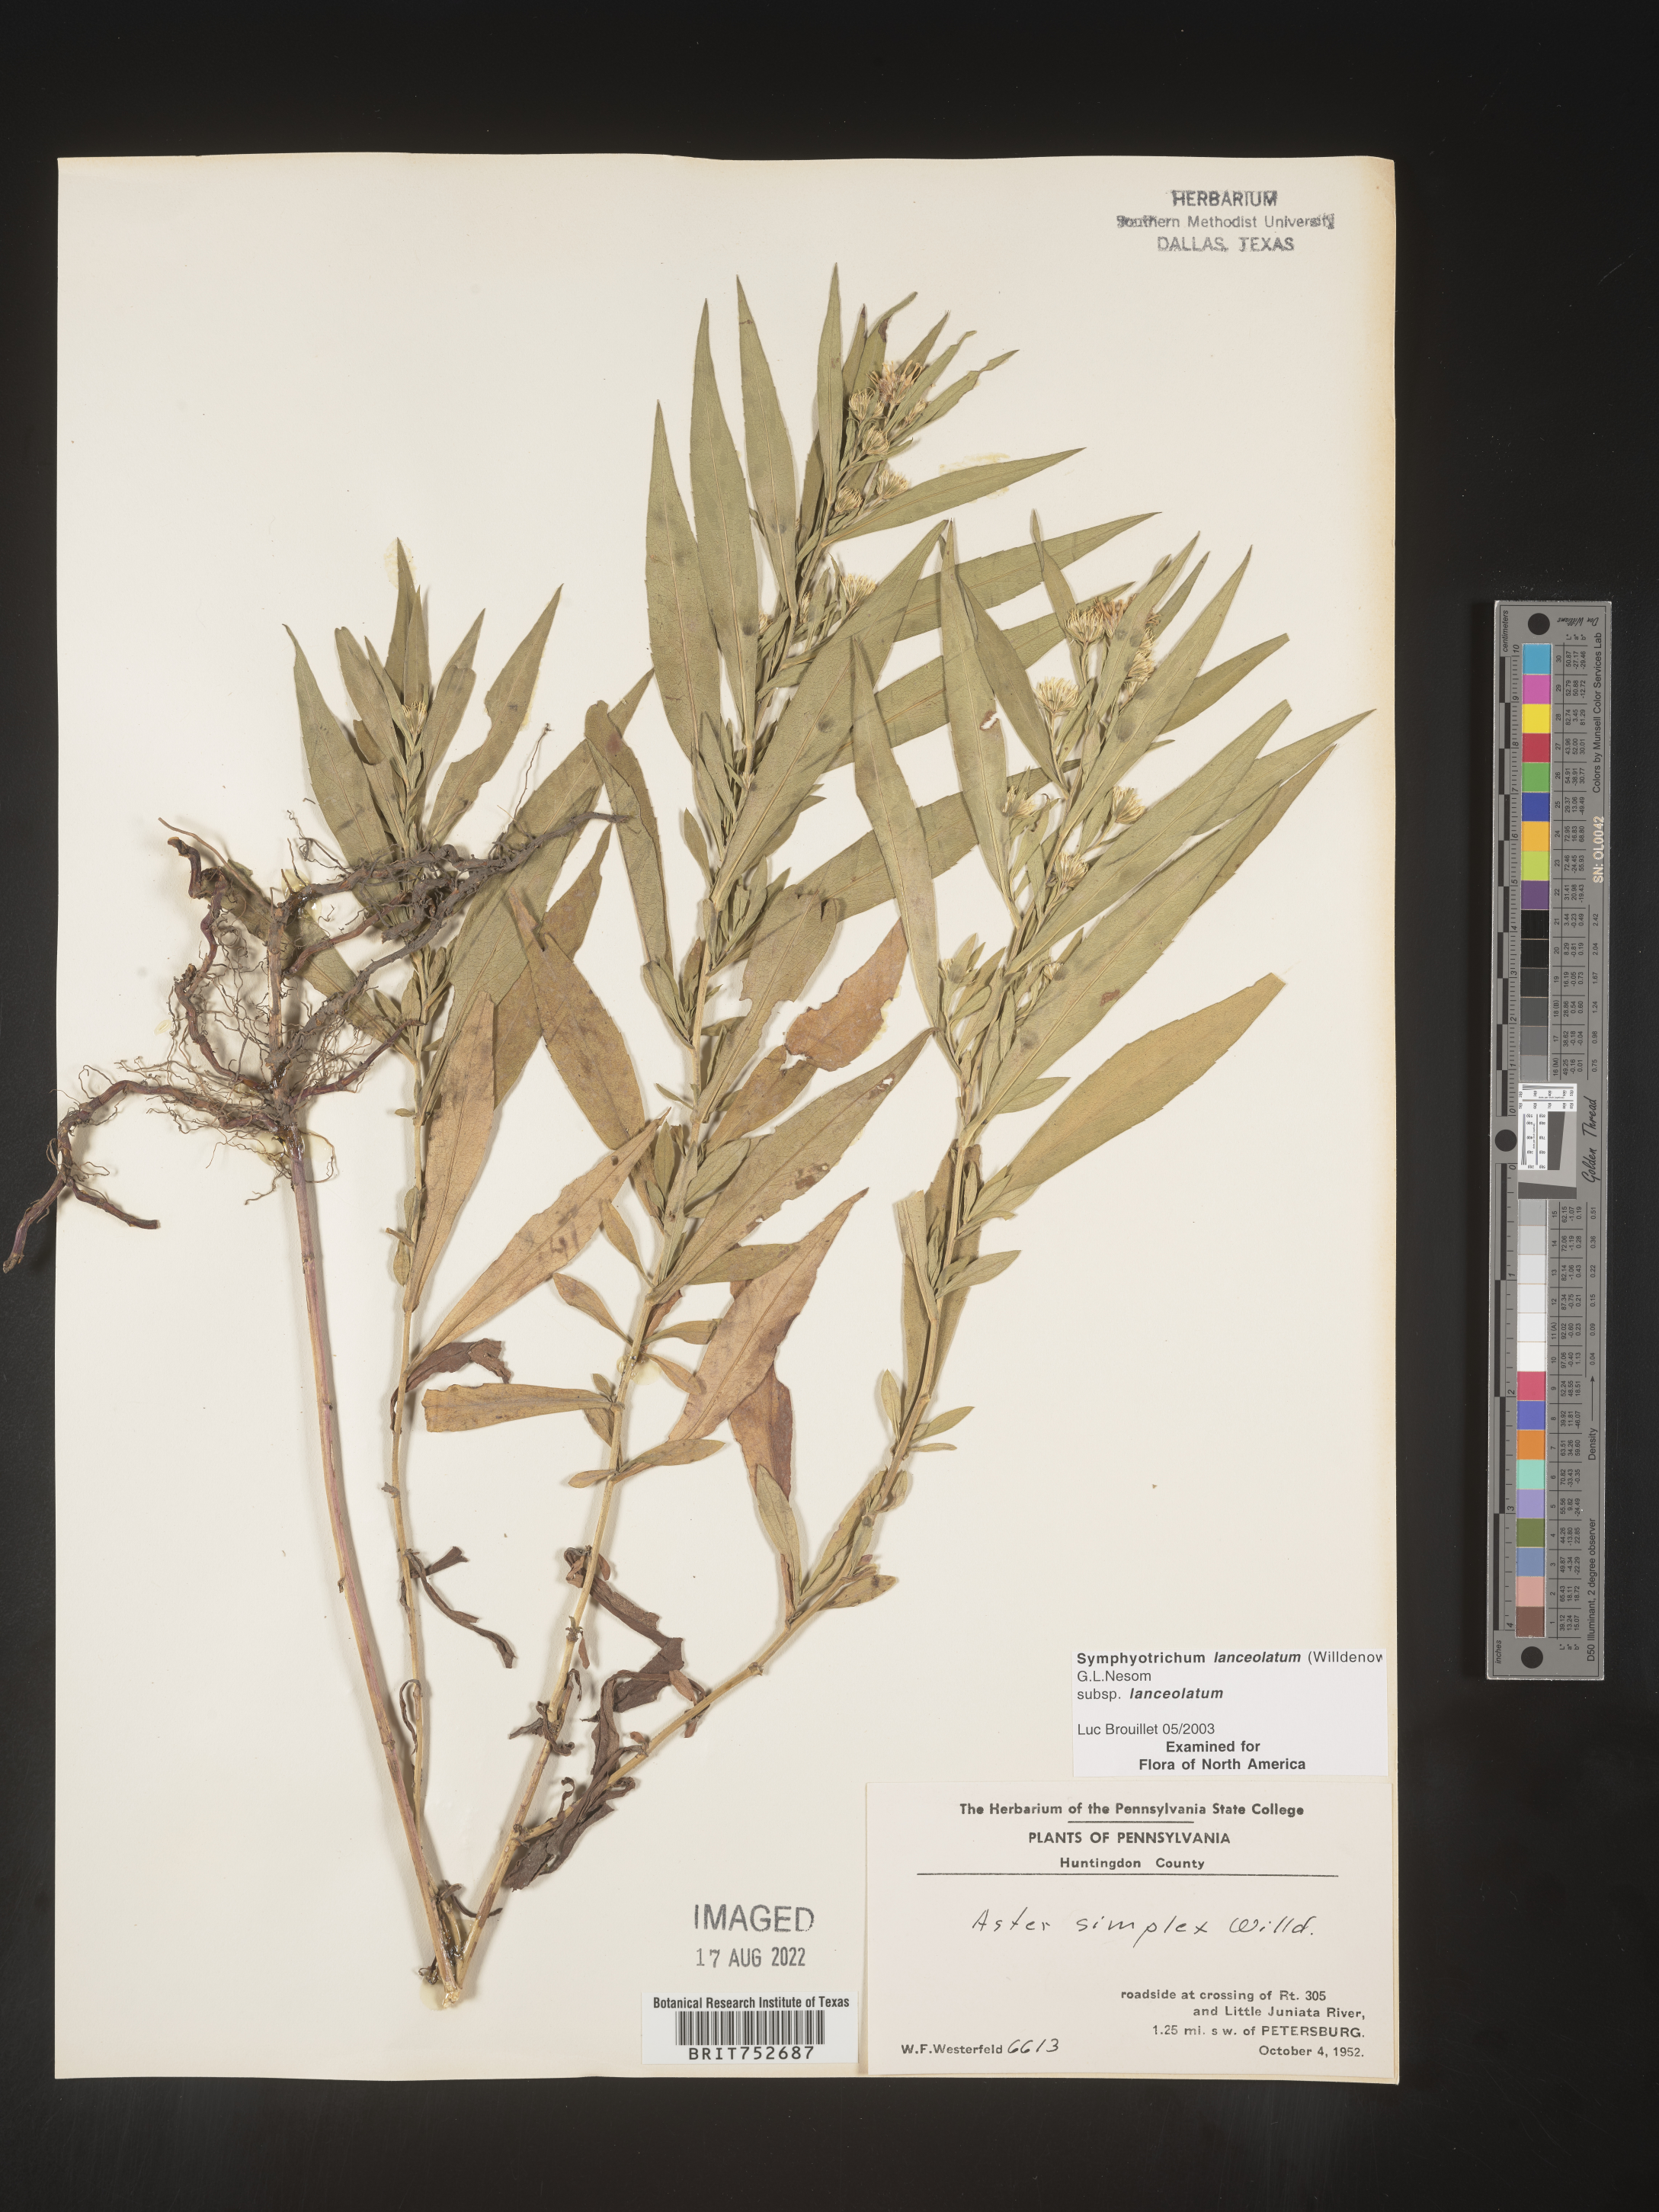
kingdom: Plantae
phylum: Tracheophyta
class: Magnoliopsida
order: Asterales
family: Asteraceae
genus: Symphyotrichum
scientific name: Symphyotrichum lanceolatum
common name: Panicled aster
